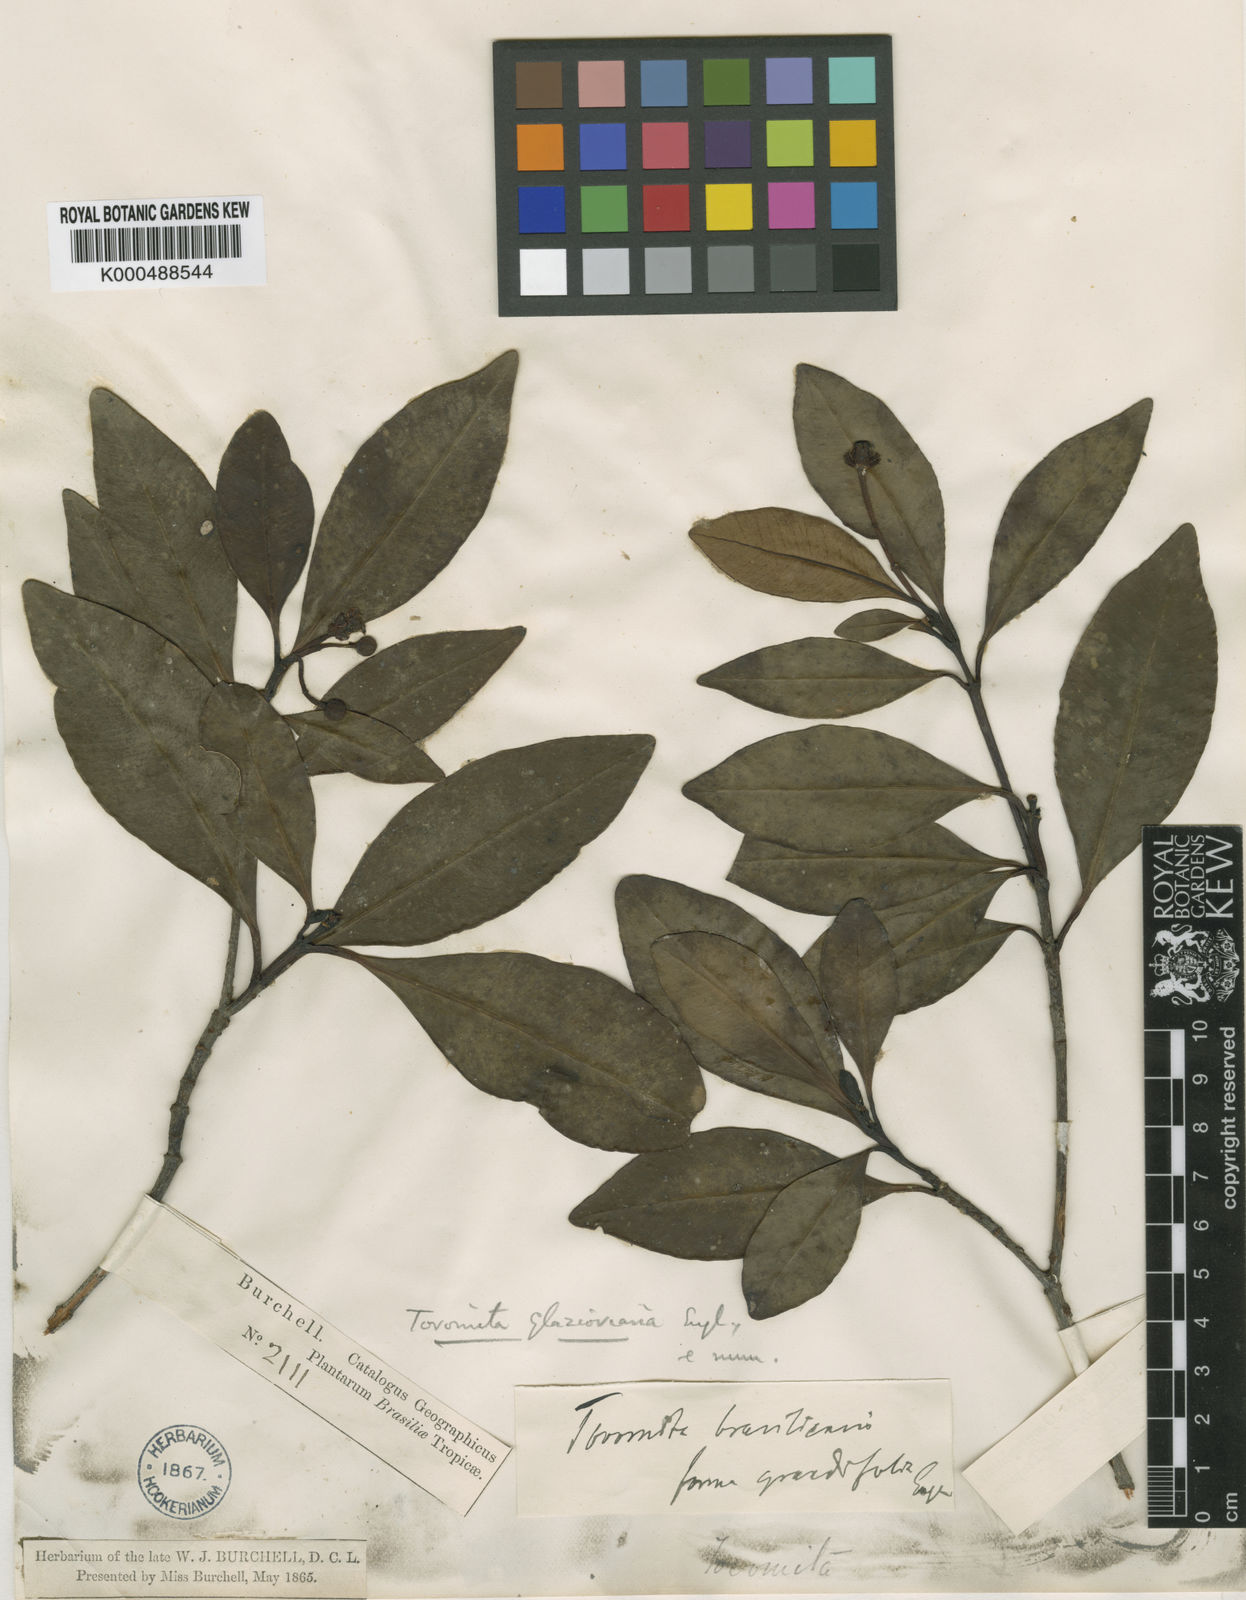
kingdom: Plantae
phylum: Tracheophyta
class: Magnoliopsida
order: Malpighiales
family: Clusiaceae
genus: Tovomita
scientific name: Tovomita glazioviana
